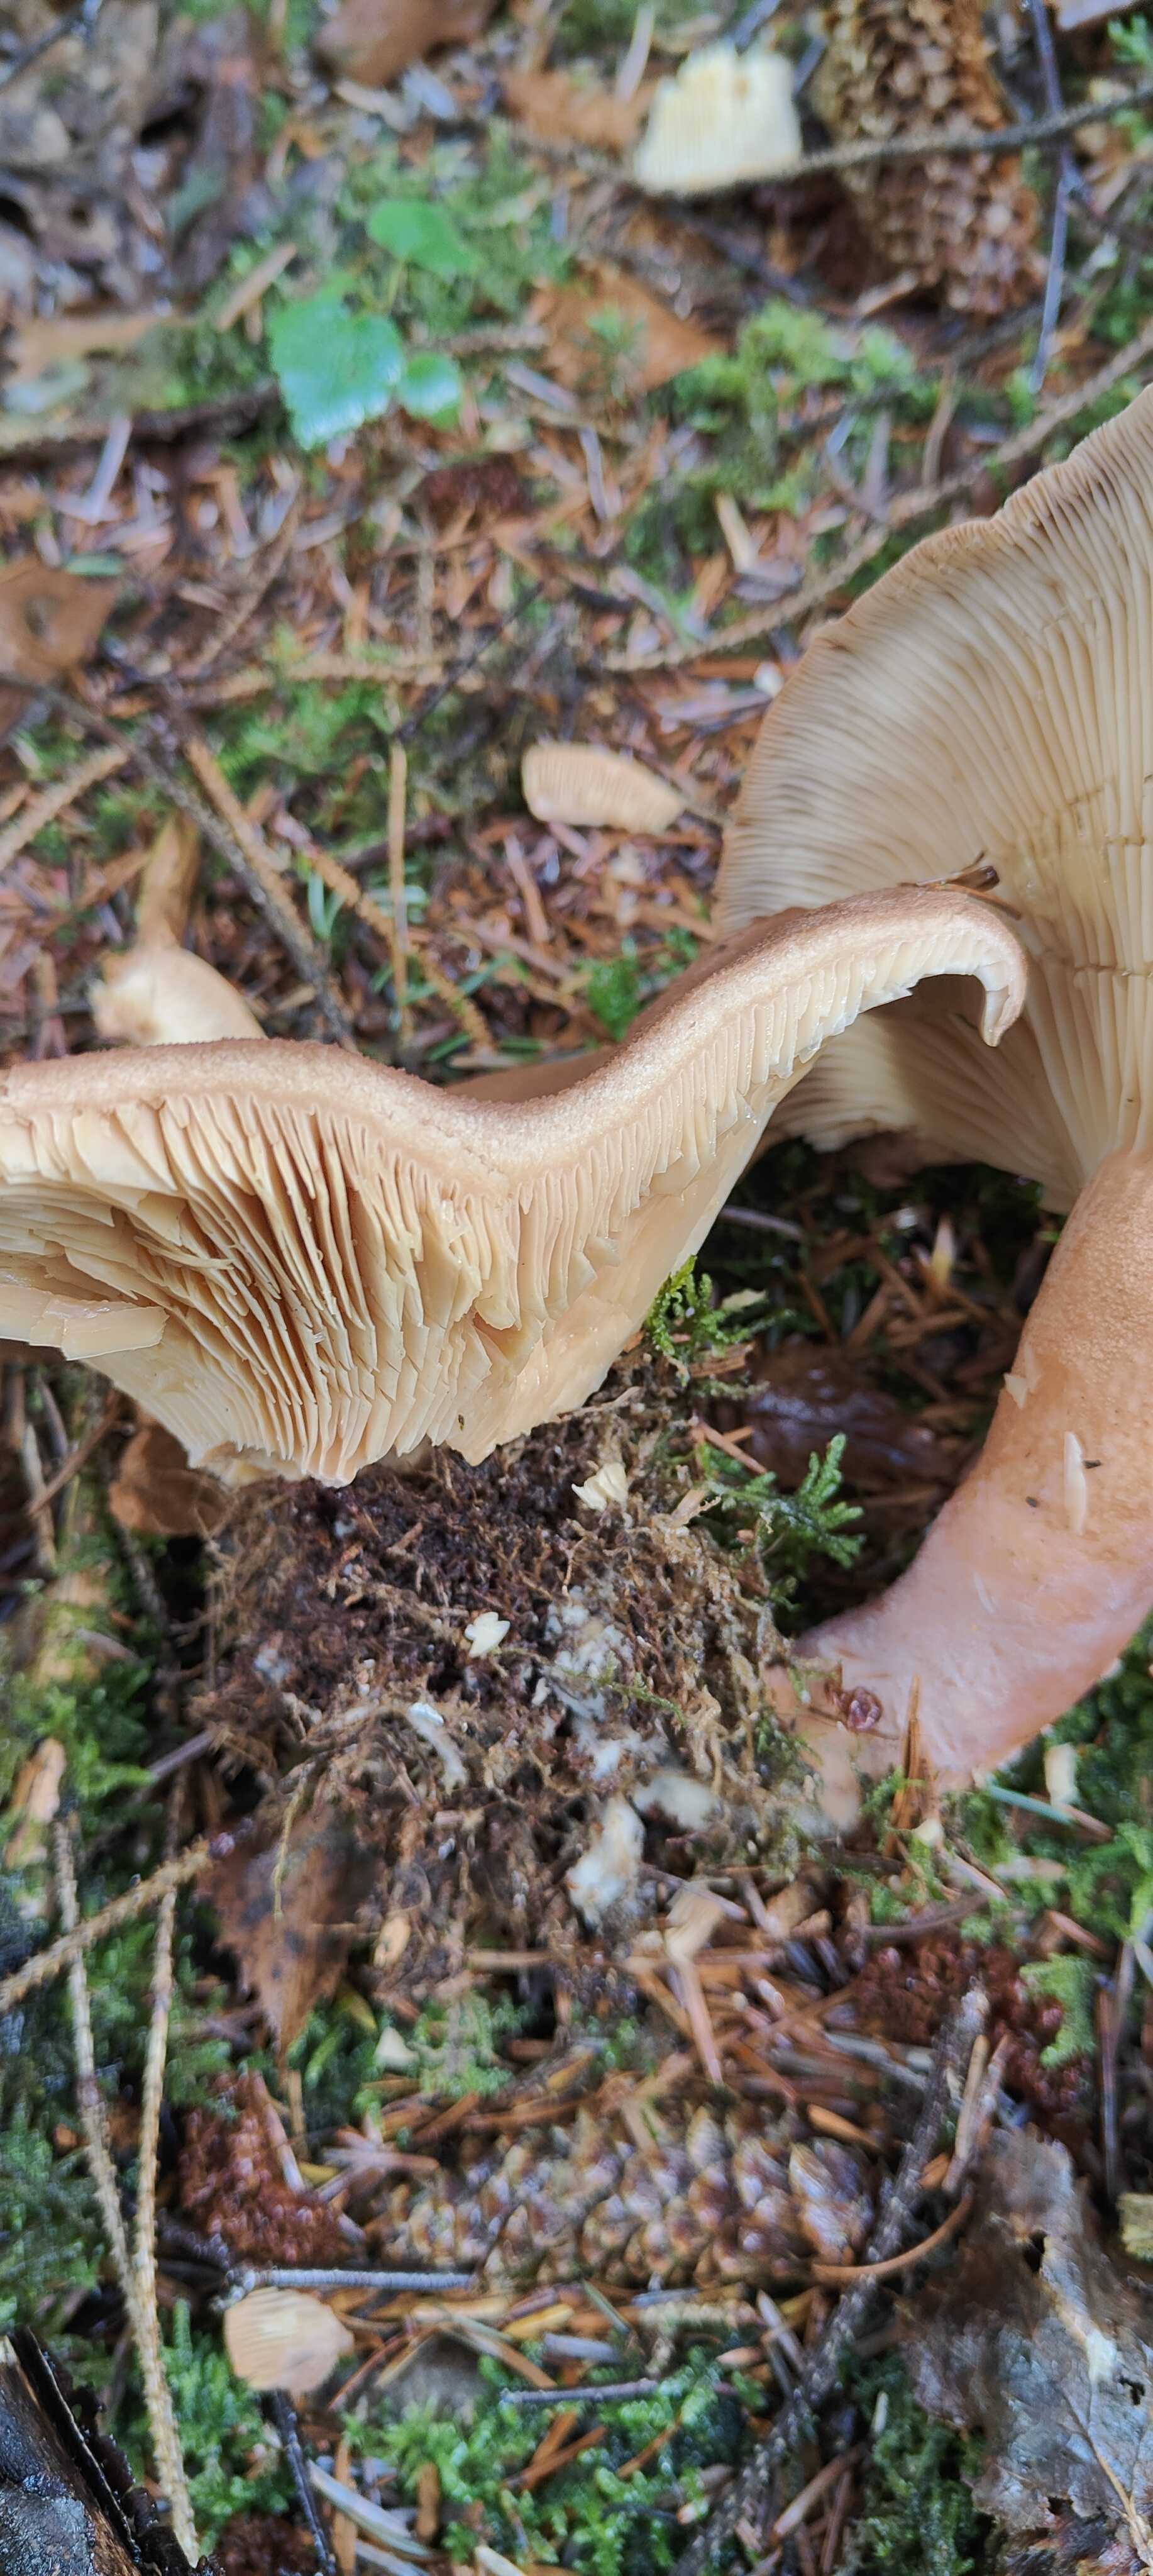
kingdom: Fungi
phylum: Basidiomycota
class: Agaricomycetes
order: Russulales
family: Russulaceae
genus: Lactarius
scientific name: Lactarius helvus
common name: mose-mælkehat
